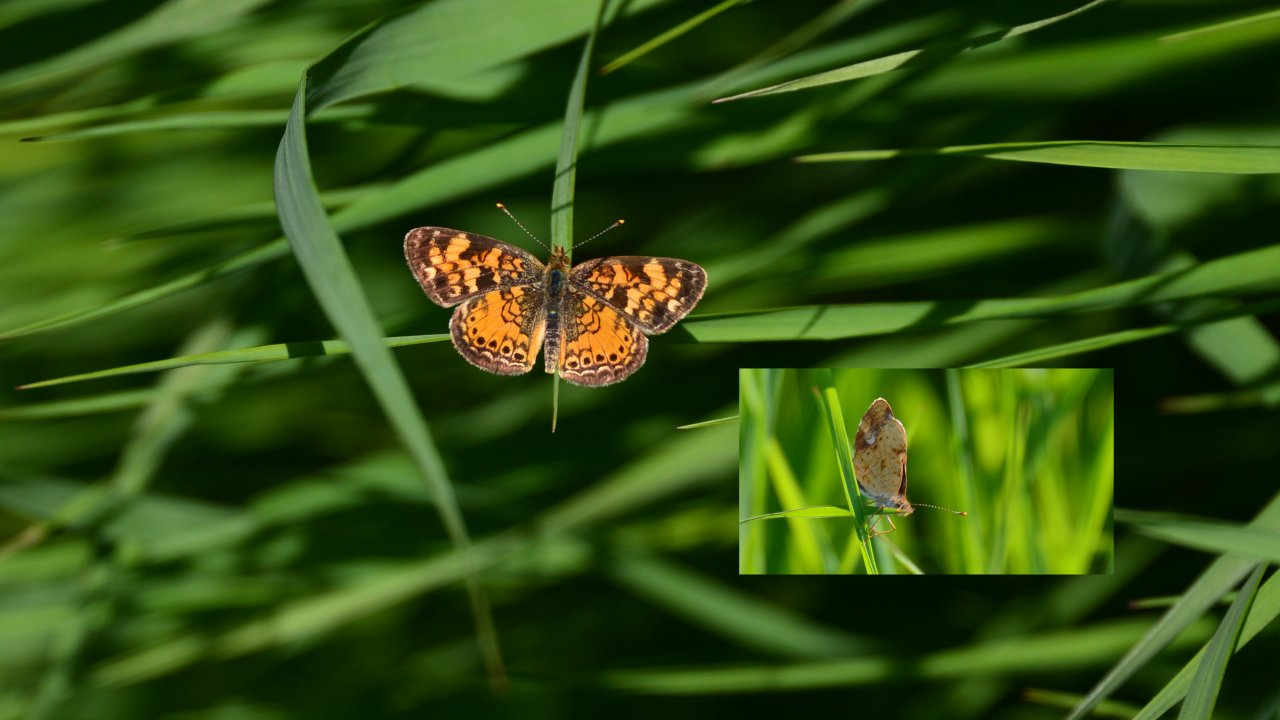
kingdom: Animalia
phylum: Arthropoda
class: Insecta
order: Lepidoptera
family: Nymphalidae
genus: Phyciodes
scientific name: Phyciodes tharos
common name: Pearl Crescent
